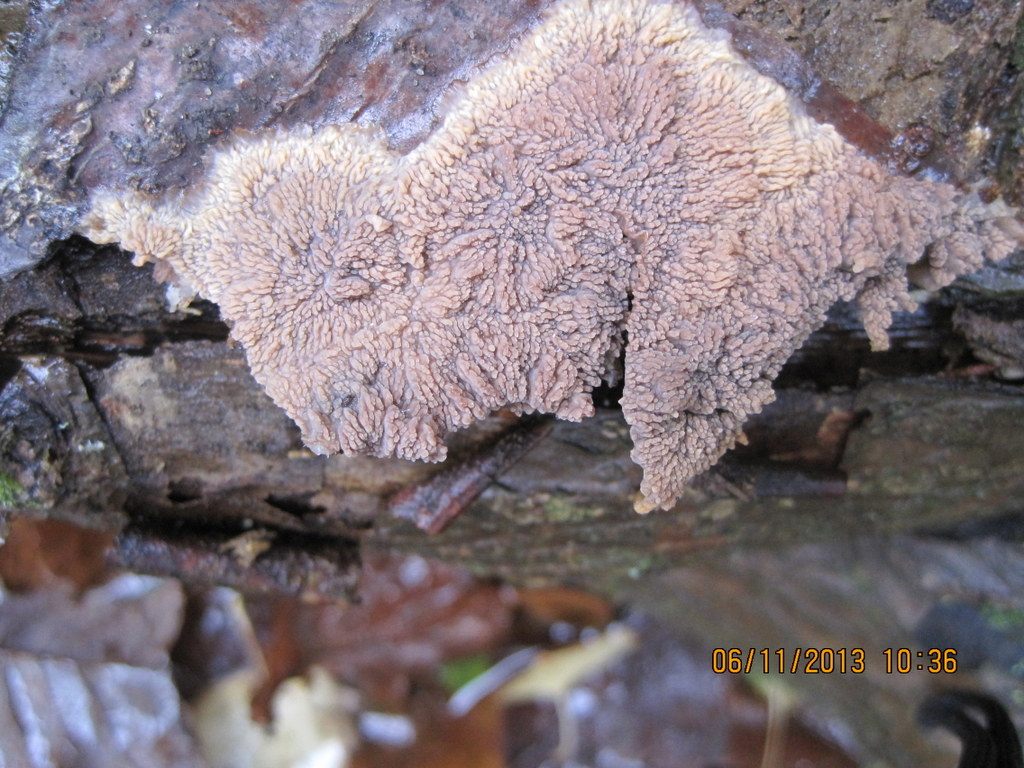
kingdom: Fungi
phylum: Basidiomycota
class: Agaricomycetes
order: Polyporales
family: Meruliaceae
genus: Phlebia
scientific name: Phlebia radiata
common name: stråle-åresvamp
